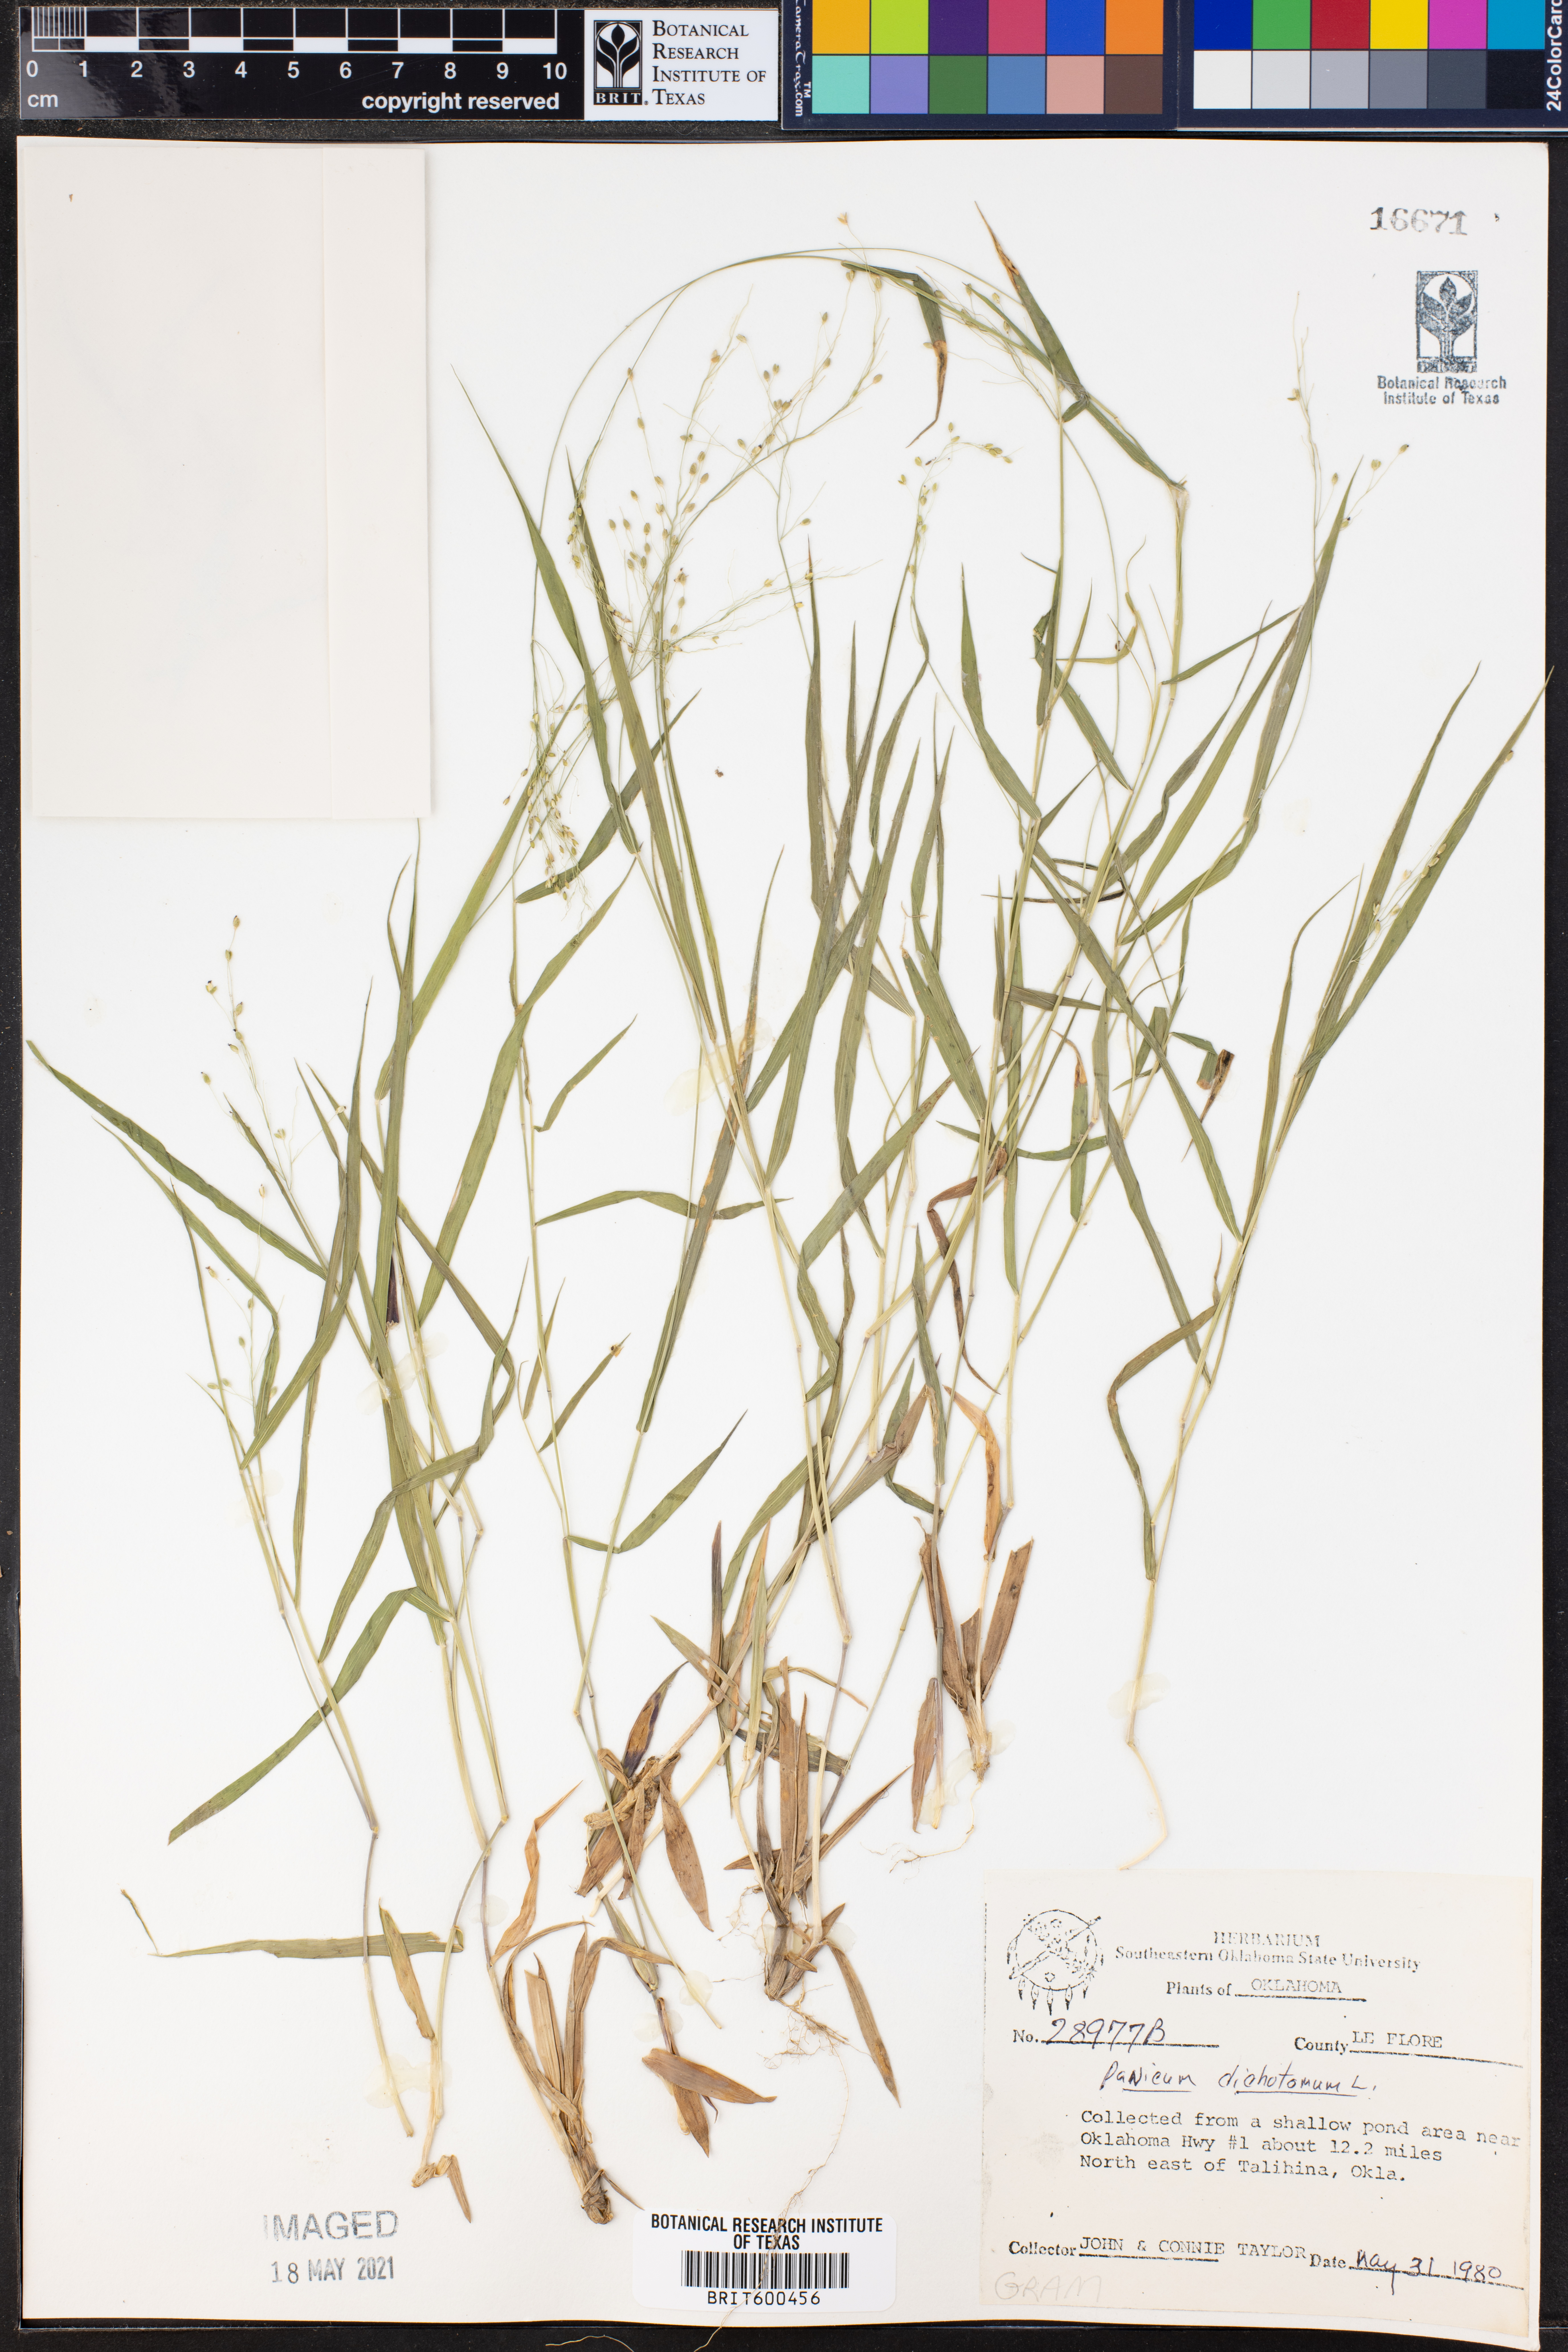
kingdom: Plantae
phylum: Tracheophyta
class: Liliopsida
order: Poales
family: Poaceae
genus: Dichanthelium
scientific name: Dichanthelium dichotomum
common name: Cypress panicgrass
